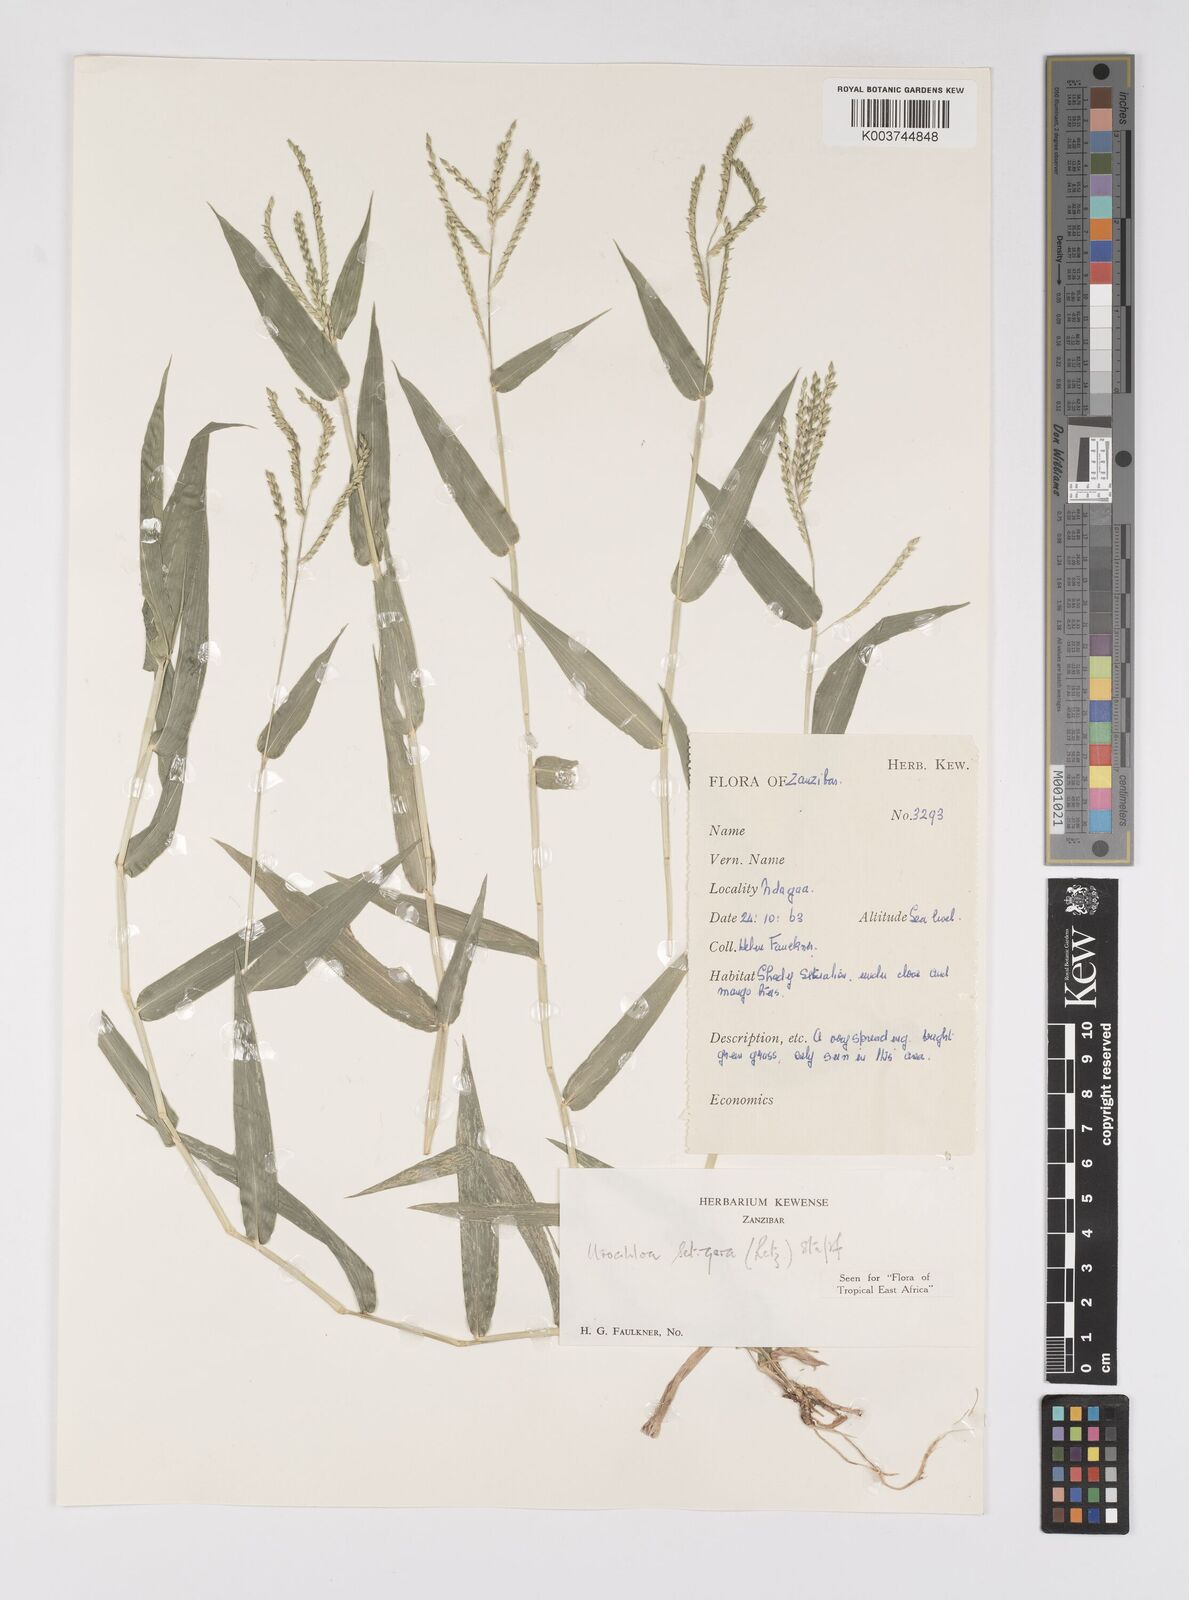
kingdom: Plantae
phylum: Tracheophyta
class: Liliopsida
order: Poales
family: Poaceae
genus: Urochloa
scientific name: Urochloa trichopodioides
